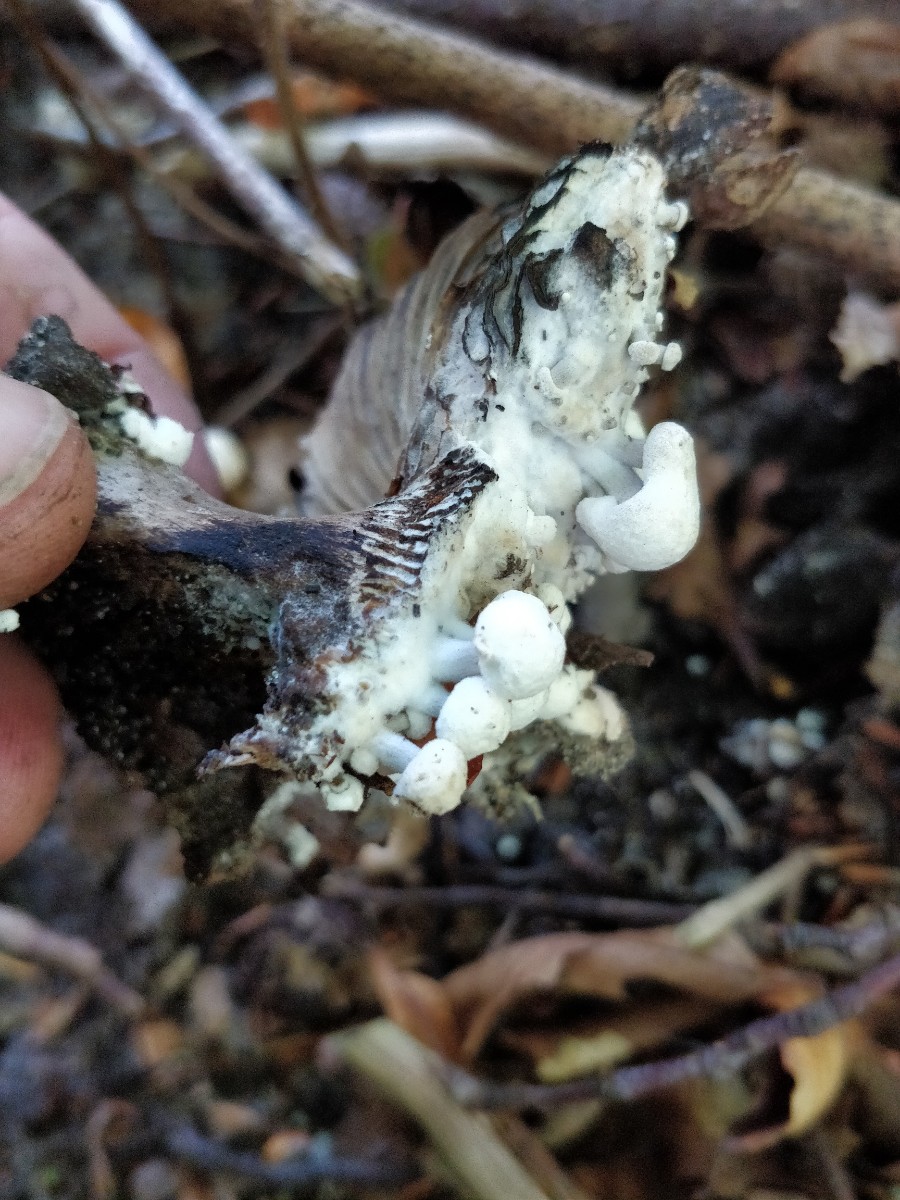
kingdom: Fungi
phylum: Basidiomycota
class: Agaricomycetes
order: Agaricales
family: Lyophyllaceae
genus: Asterophora
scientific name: Asterophora parasitica
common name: grå snyltehat
